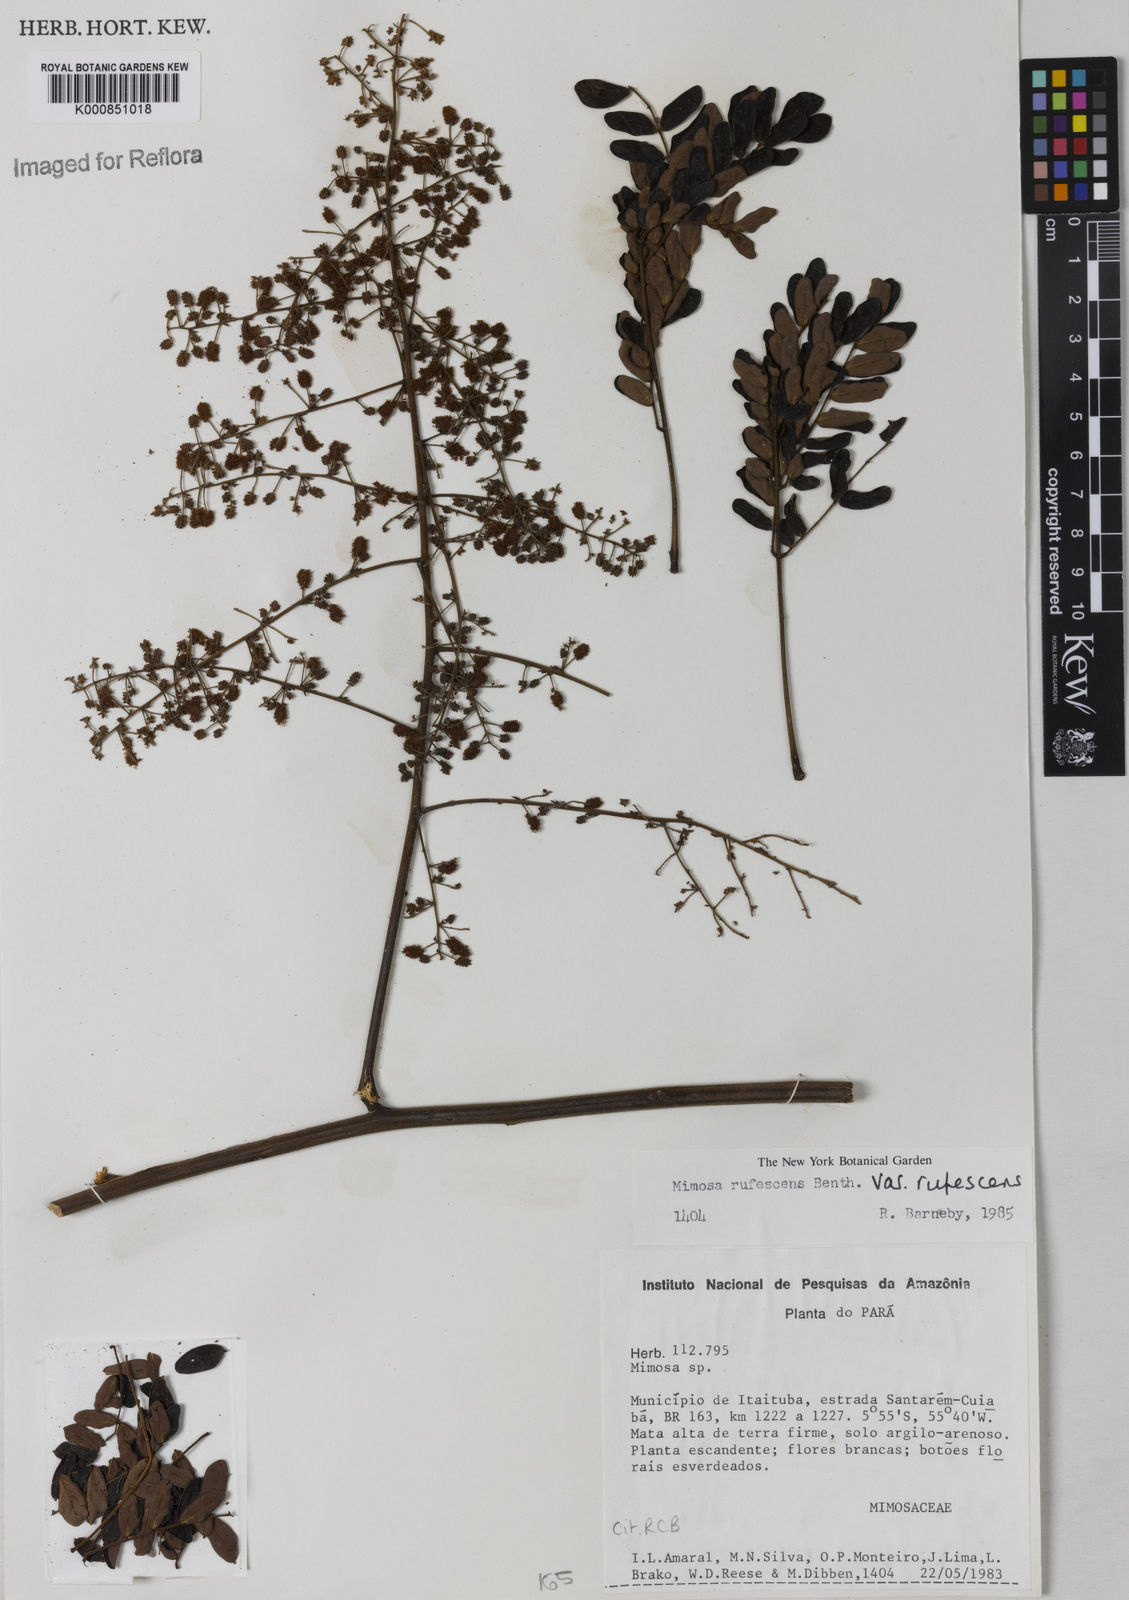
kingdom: Plantae
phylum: Tracheophyta
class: Magnoliopsida
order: Fabales
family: Fabaceae
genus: Mimosa
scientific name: Mimosa rufescens
